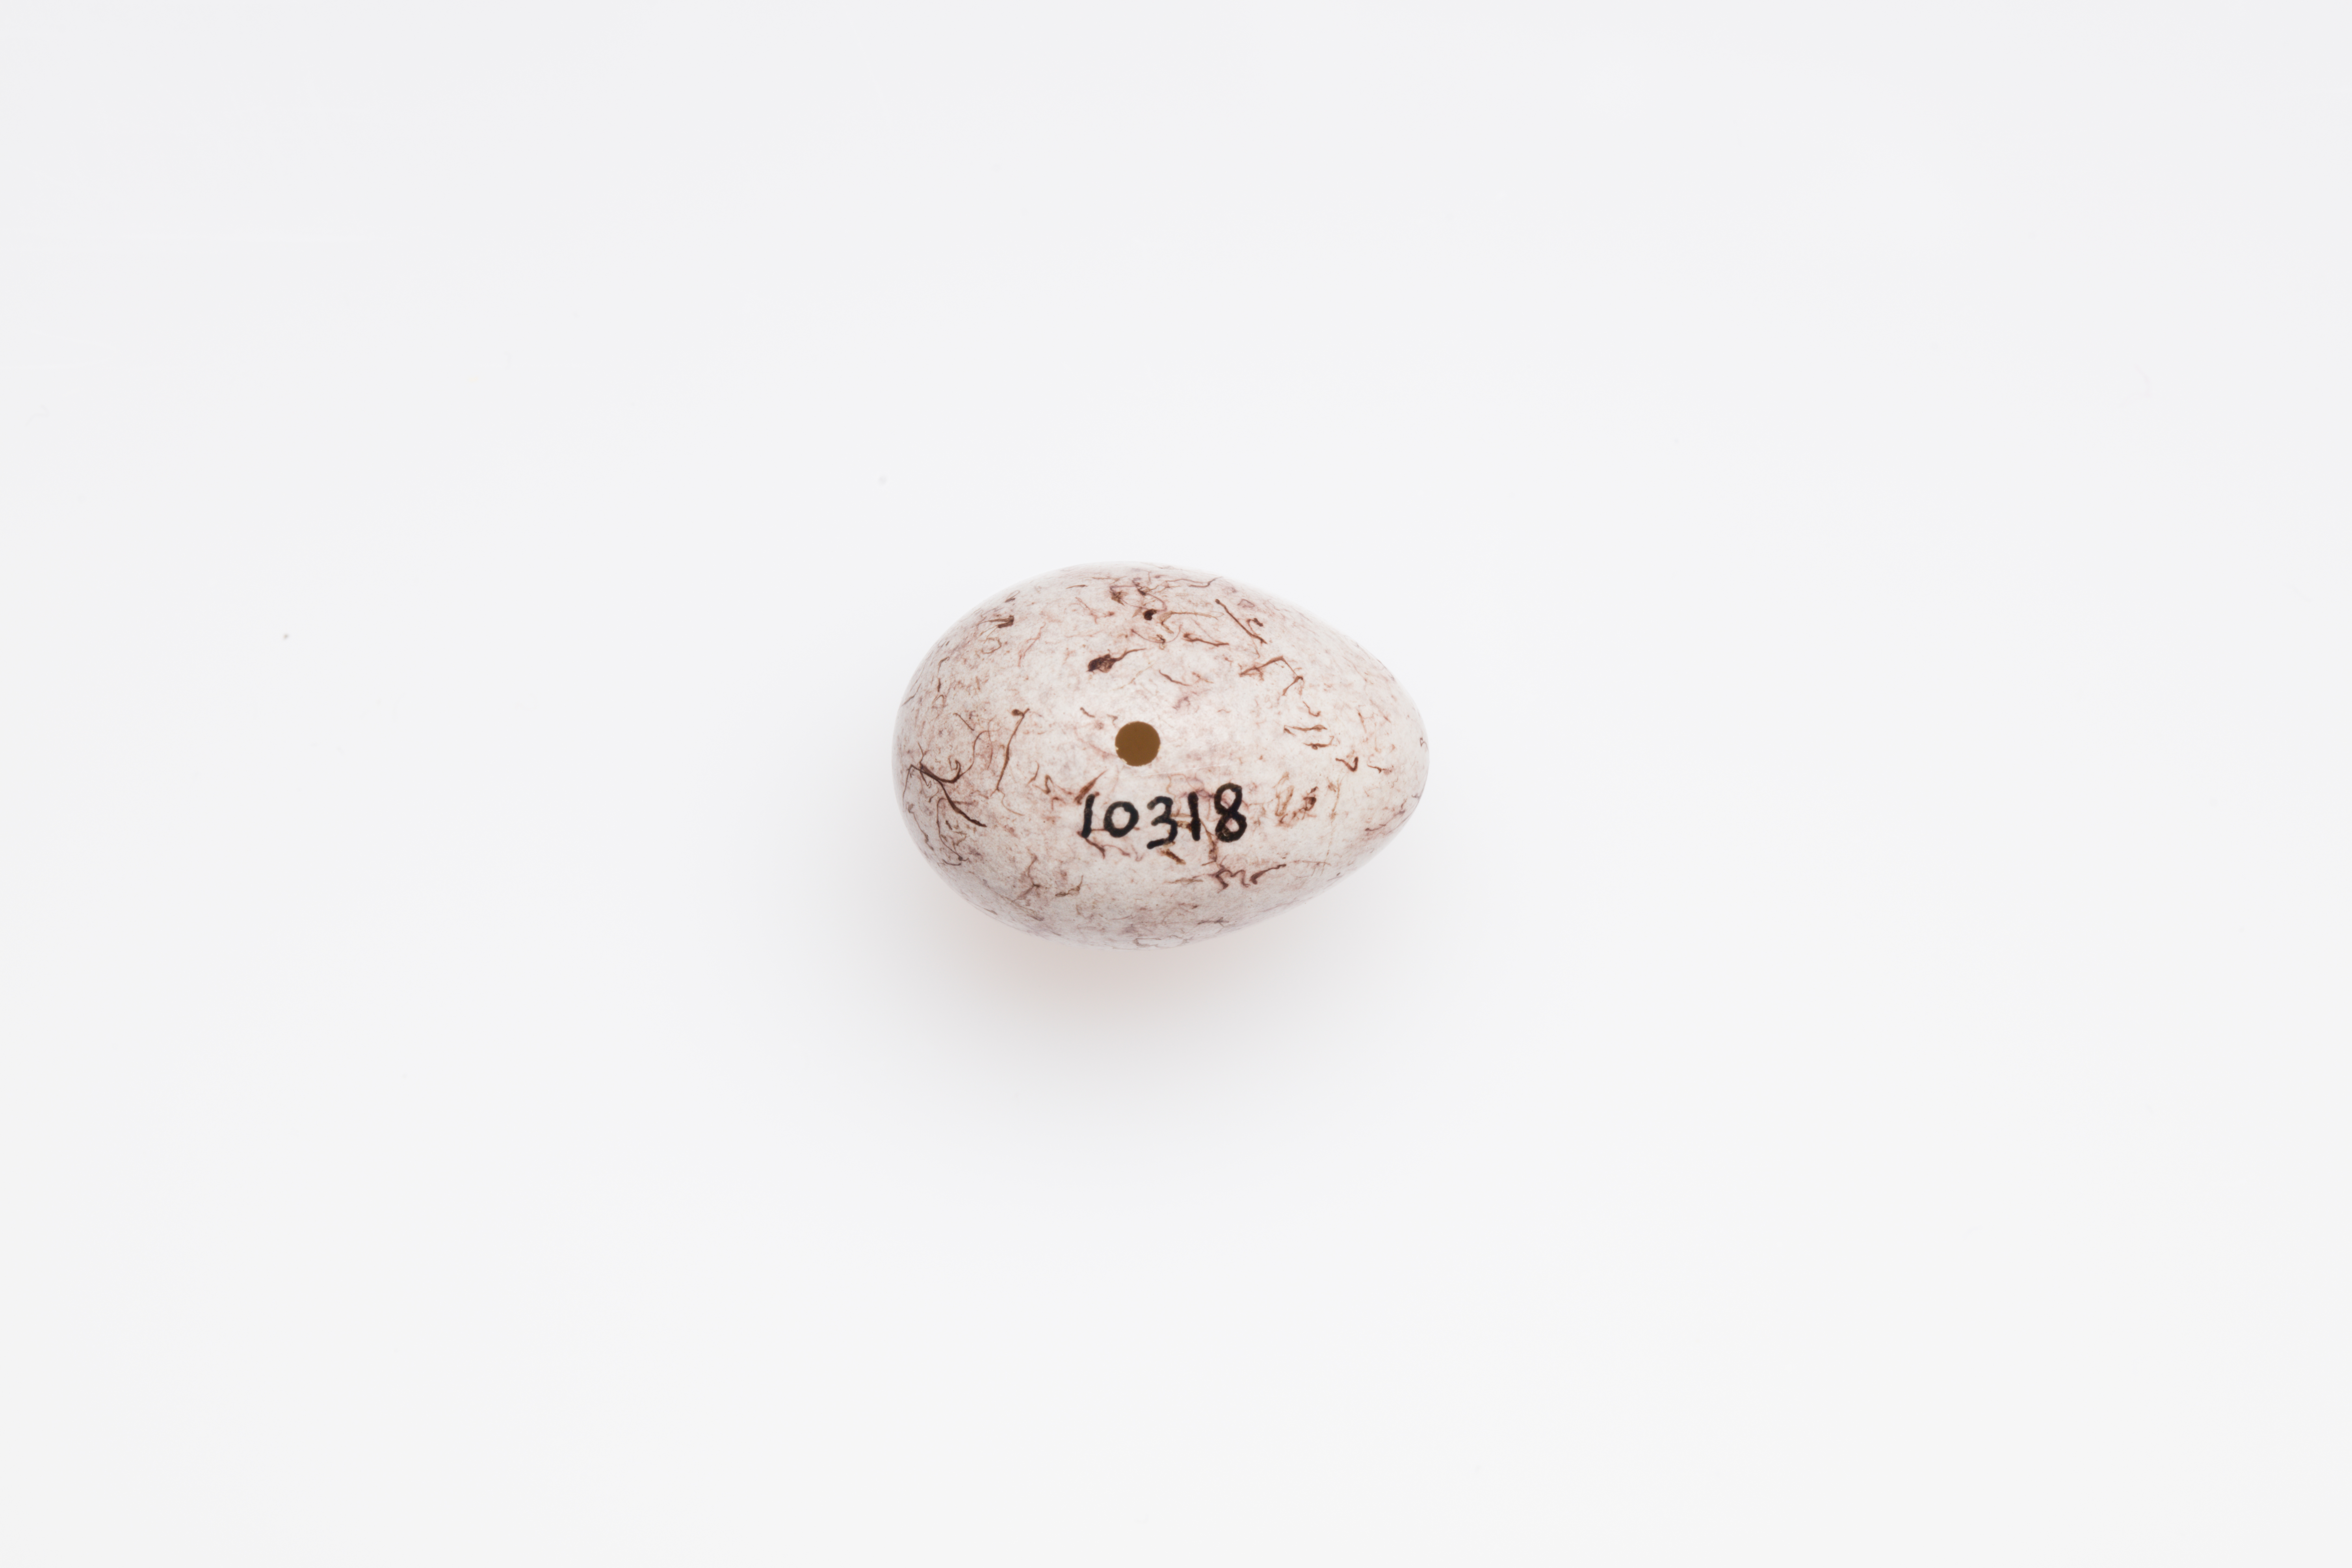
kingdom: Animalia
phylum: Chordata
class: Aves
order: Passeriformes
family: Emberizidae
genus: Emberiza
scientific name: Emberiza cirlus
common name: Cirl bunting
